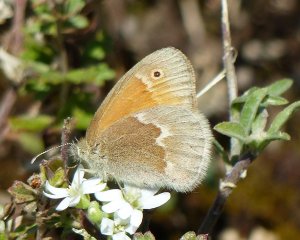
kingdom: Animalia
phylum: Arthropoda
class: Insecta
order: Lepidoptera
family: Nymphalidae
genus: Coenonympha
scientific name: Coenonympha tullia
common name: Large Heath
